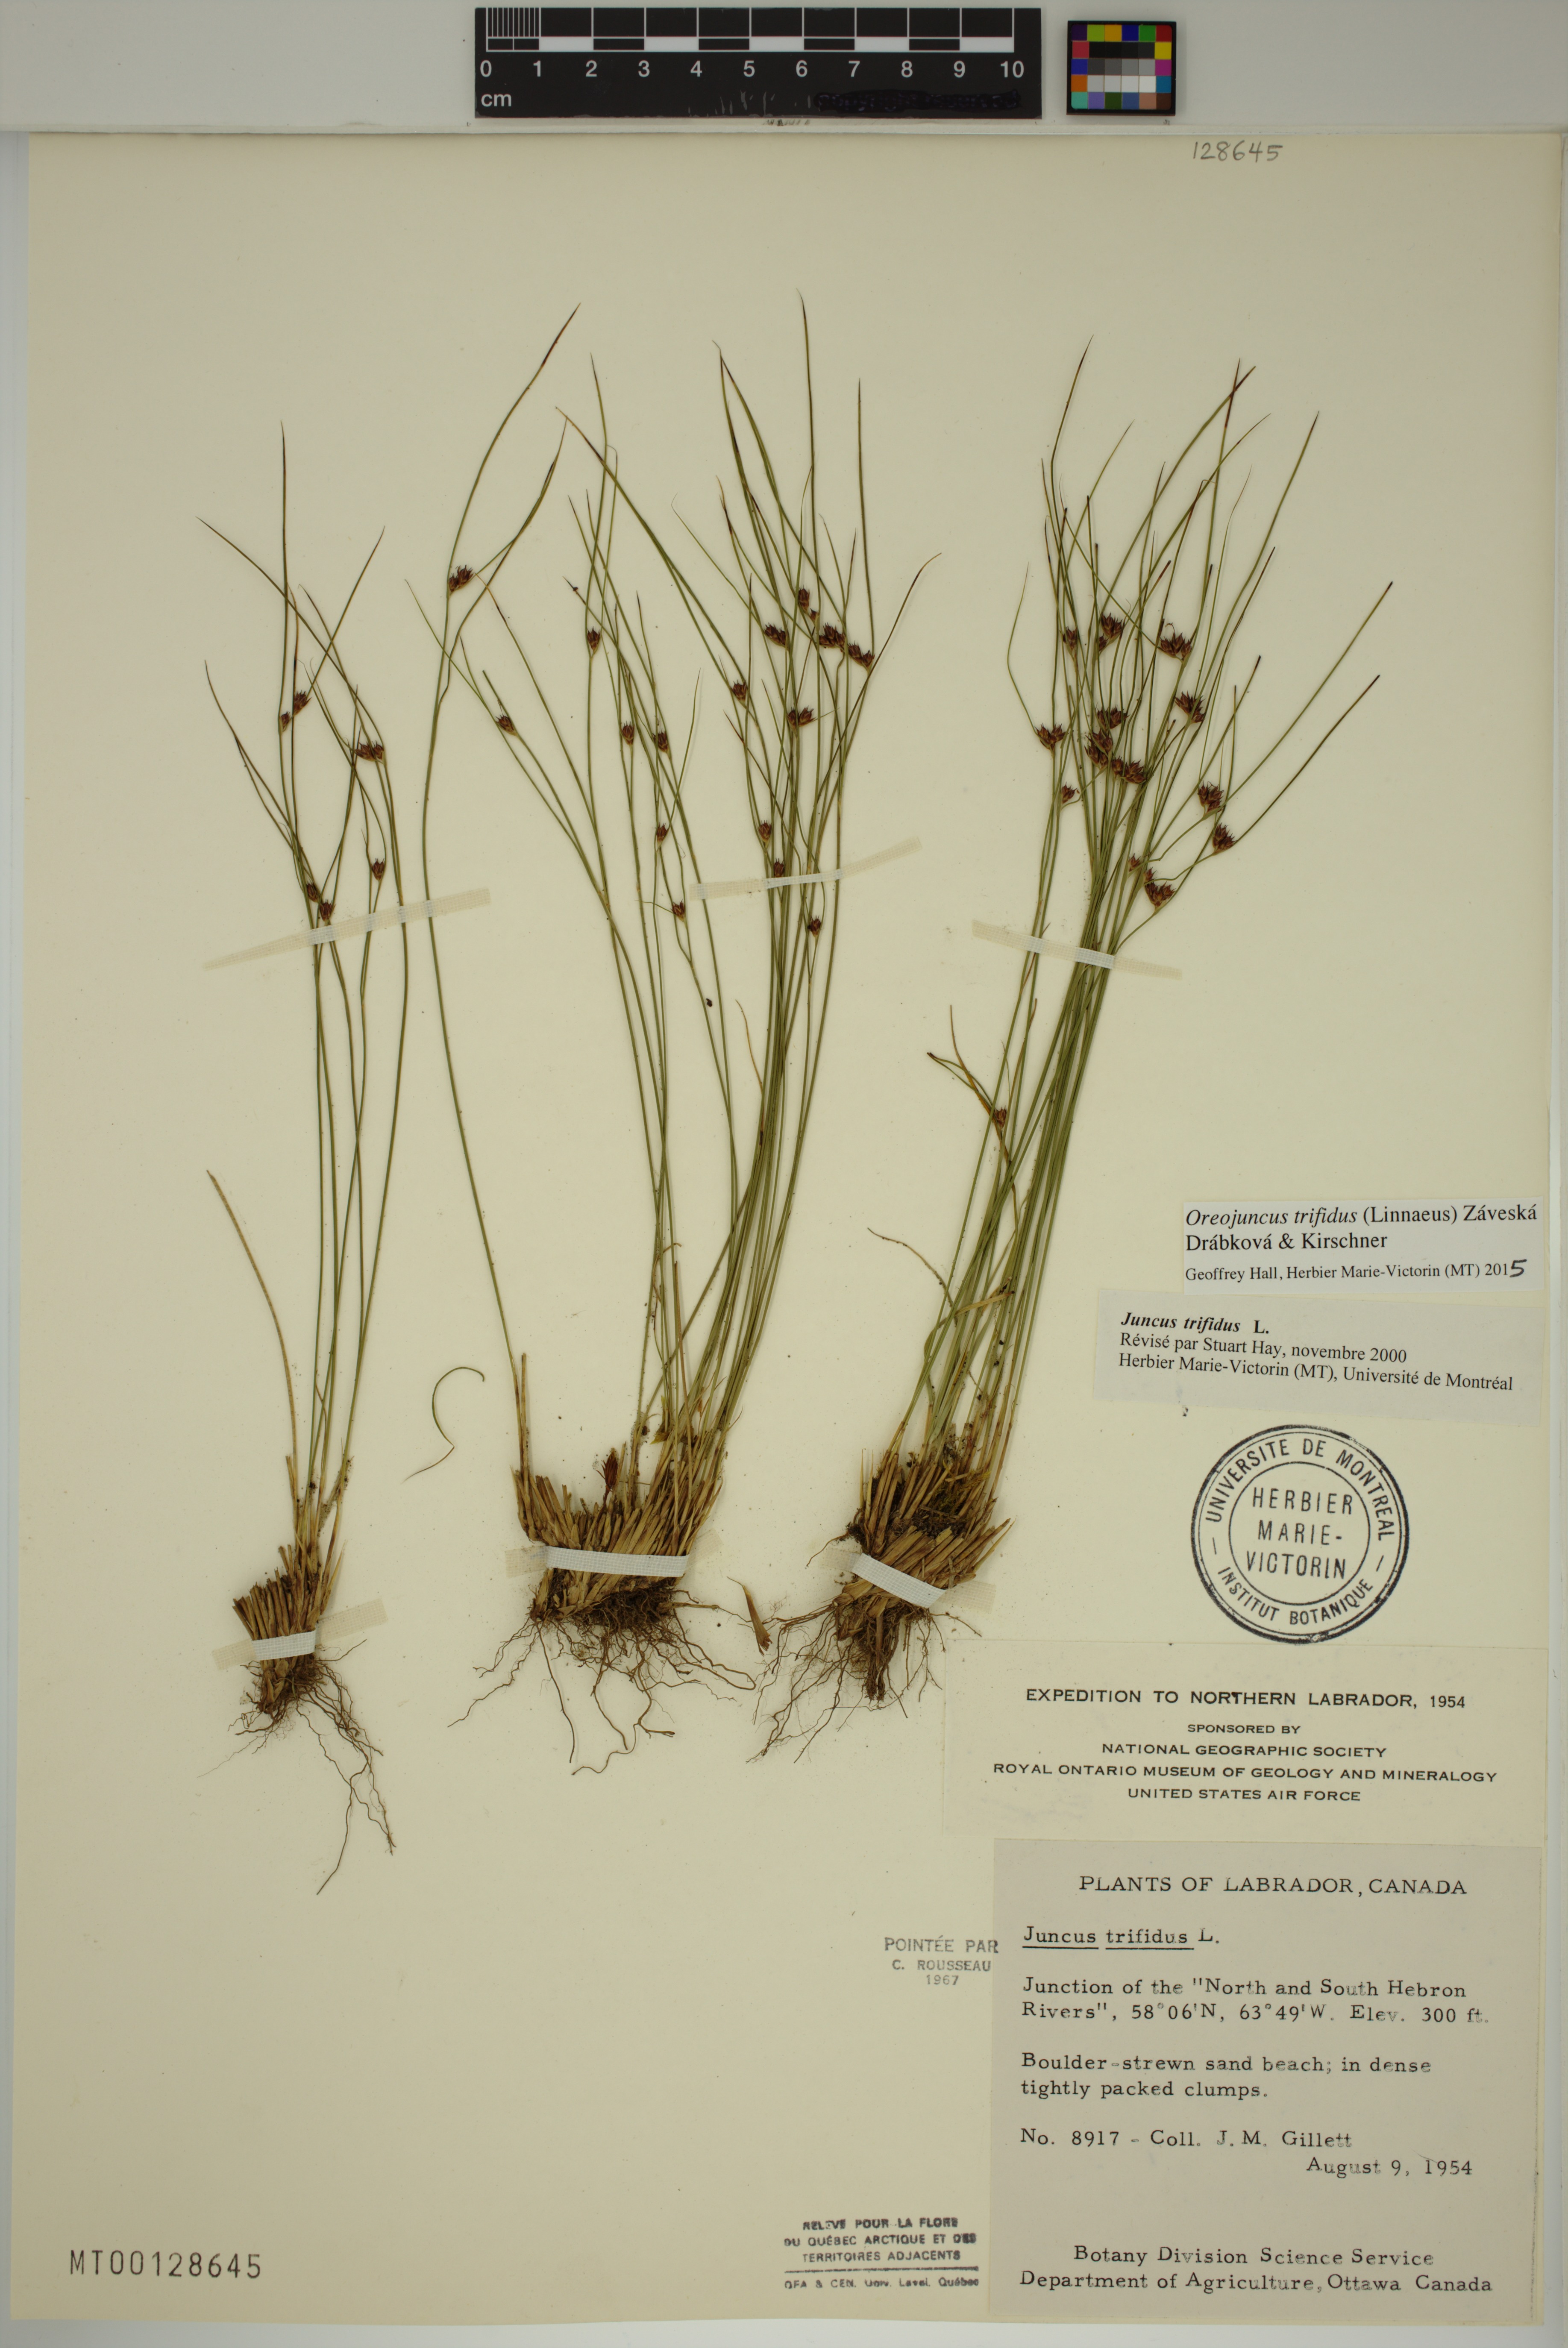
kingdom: Plantae
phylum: Tracheophyta
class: Liliopsida
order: Poales
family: Juncaceae
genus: Oreojuncus
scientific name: Oreojuncus trifidus
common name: Highland rush
